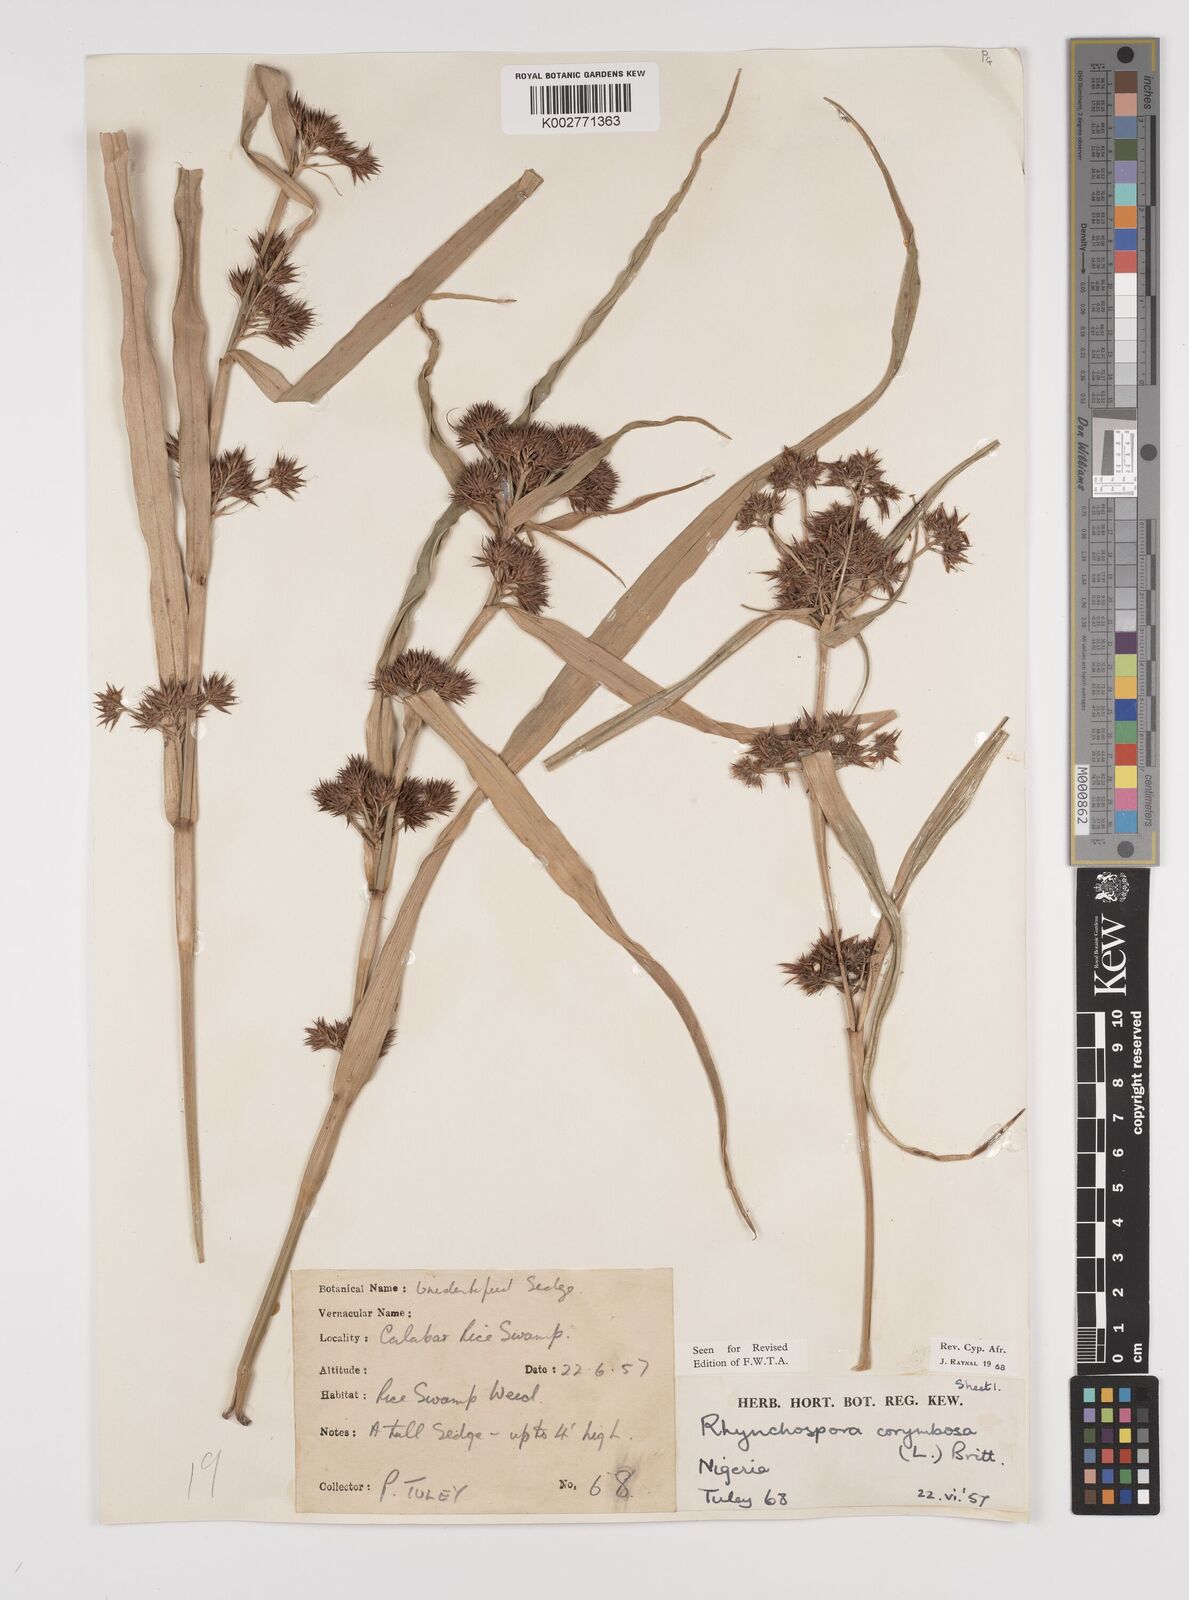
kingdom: Plantae
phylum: Tracheophyta
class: Liliopsida
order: Poales
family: Cyperaceae
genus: Rhynchospora
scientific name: Rhynchospora corymbosa
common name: Golden beak sedge
